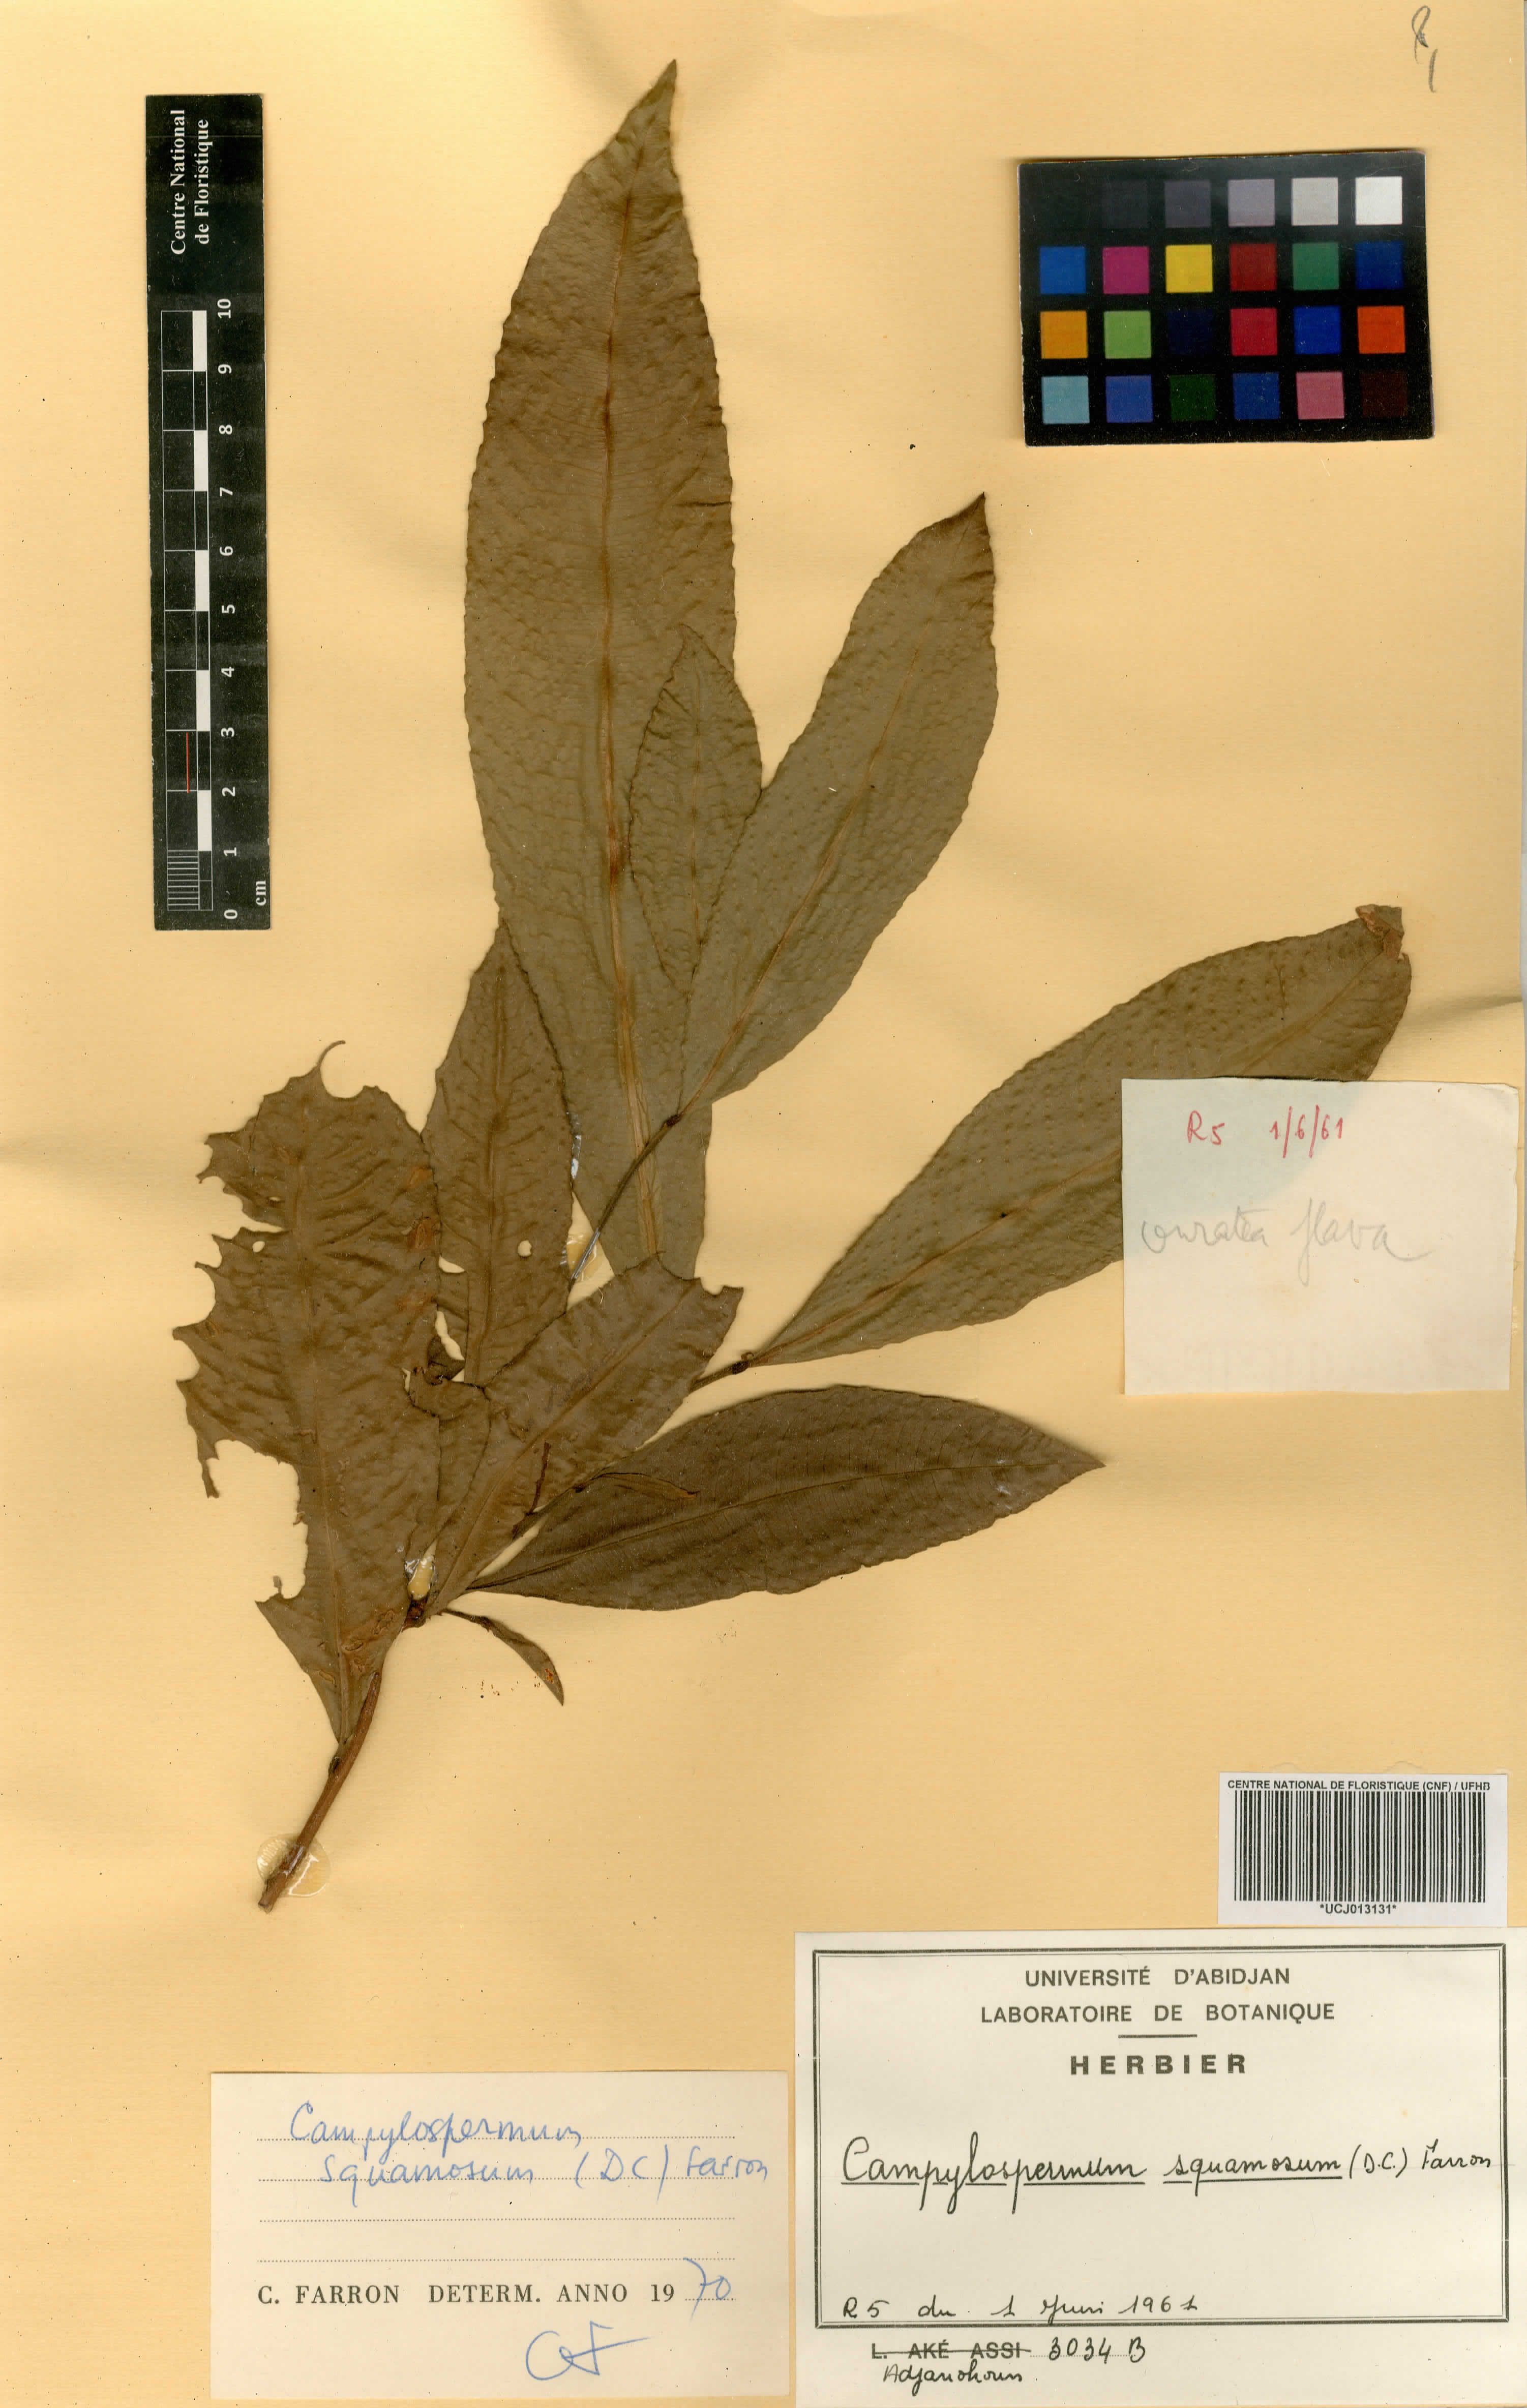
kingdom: Plantae
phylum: Tracheophyta
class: Magnoliopsida
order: Malpighiales
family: Ochnaceae
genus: Campylospermum
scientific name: Campylospermum squamosum
